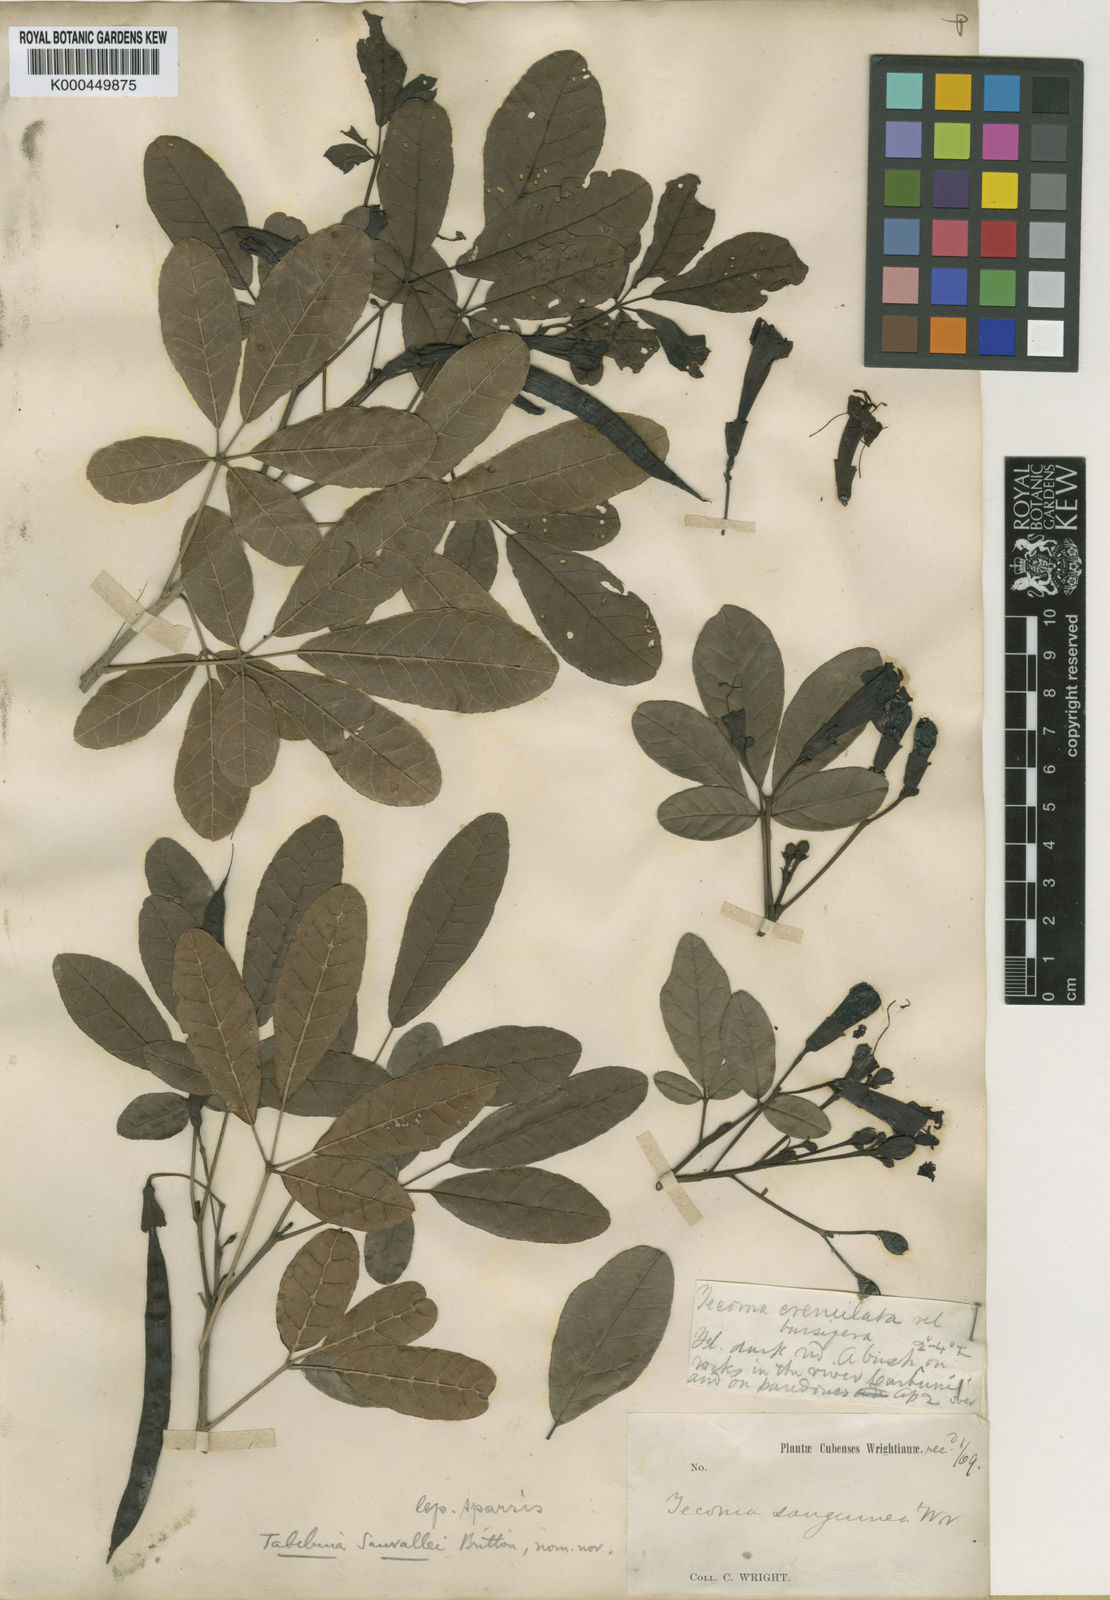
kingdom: Plantae
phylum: Tracheophyta
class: Magnoliopsida
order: Lamiales
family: Bignoniaceae
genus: Tabebuia
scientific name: Tabebuia sauvallei
